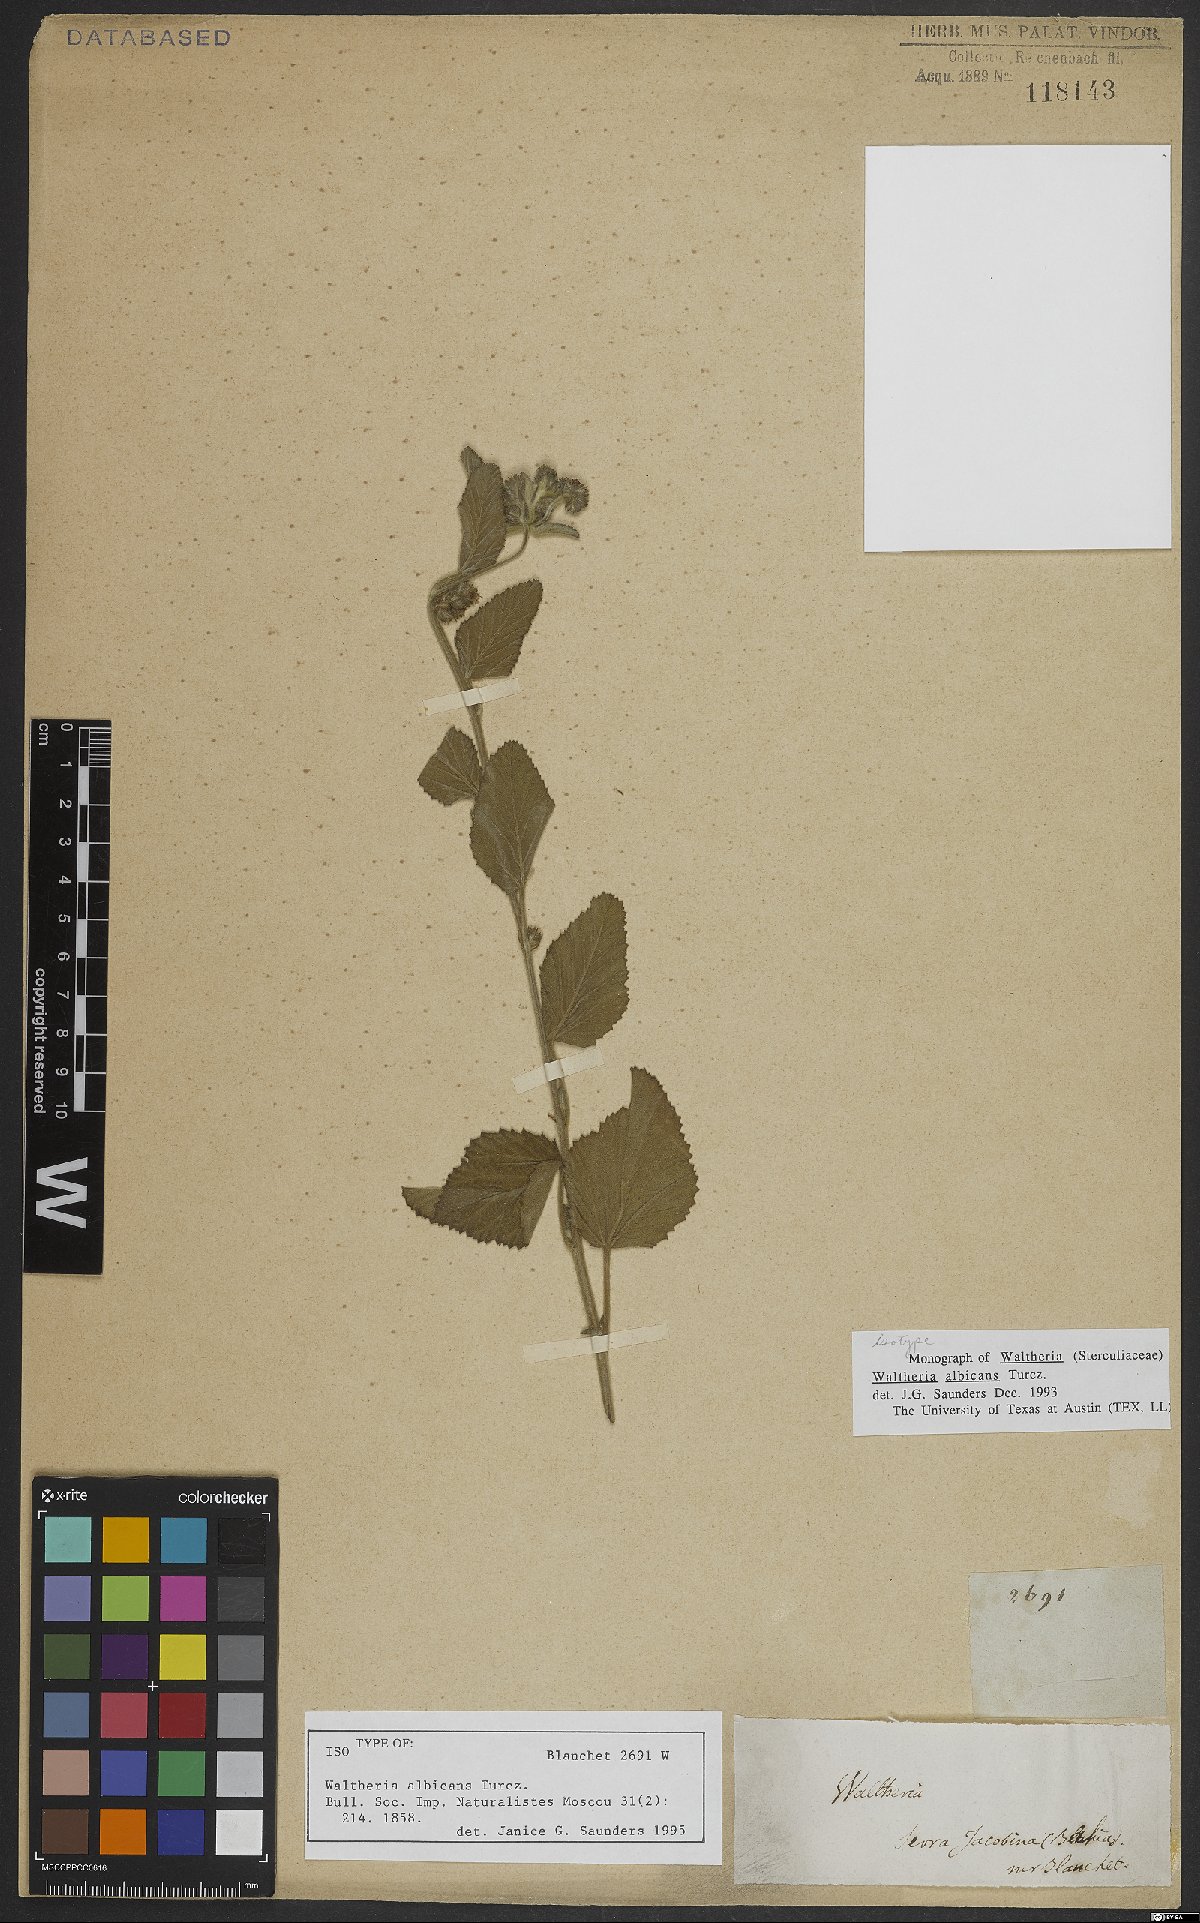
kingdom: Plantae
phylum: Tracheophyta
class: Magnoliopsida
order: Malvales
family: Malvaceae
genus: Waltheria
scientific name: Waltheria albicans
